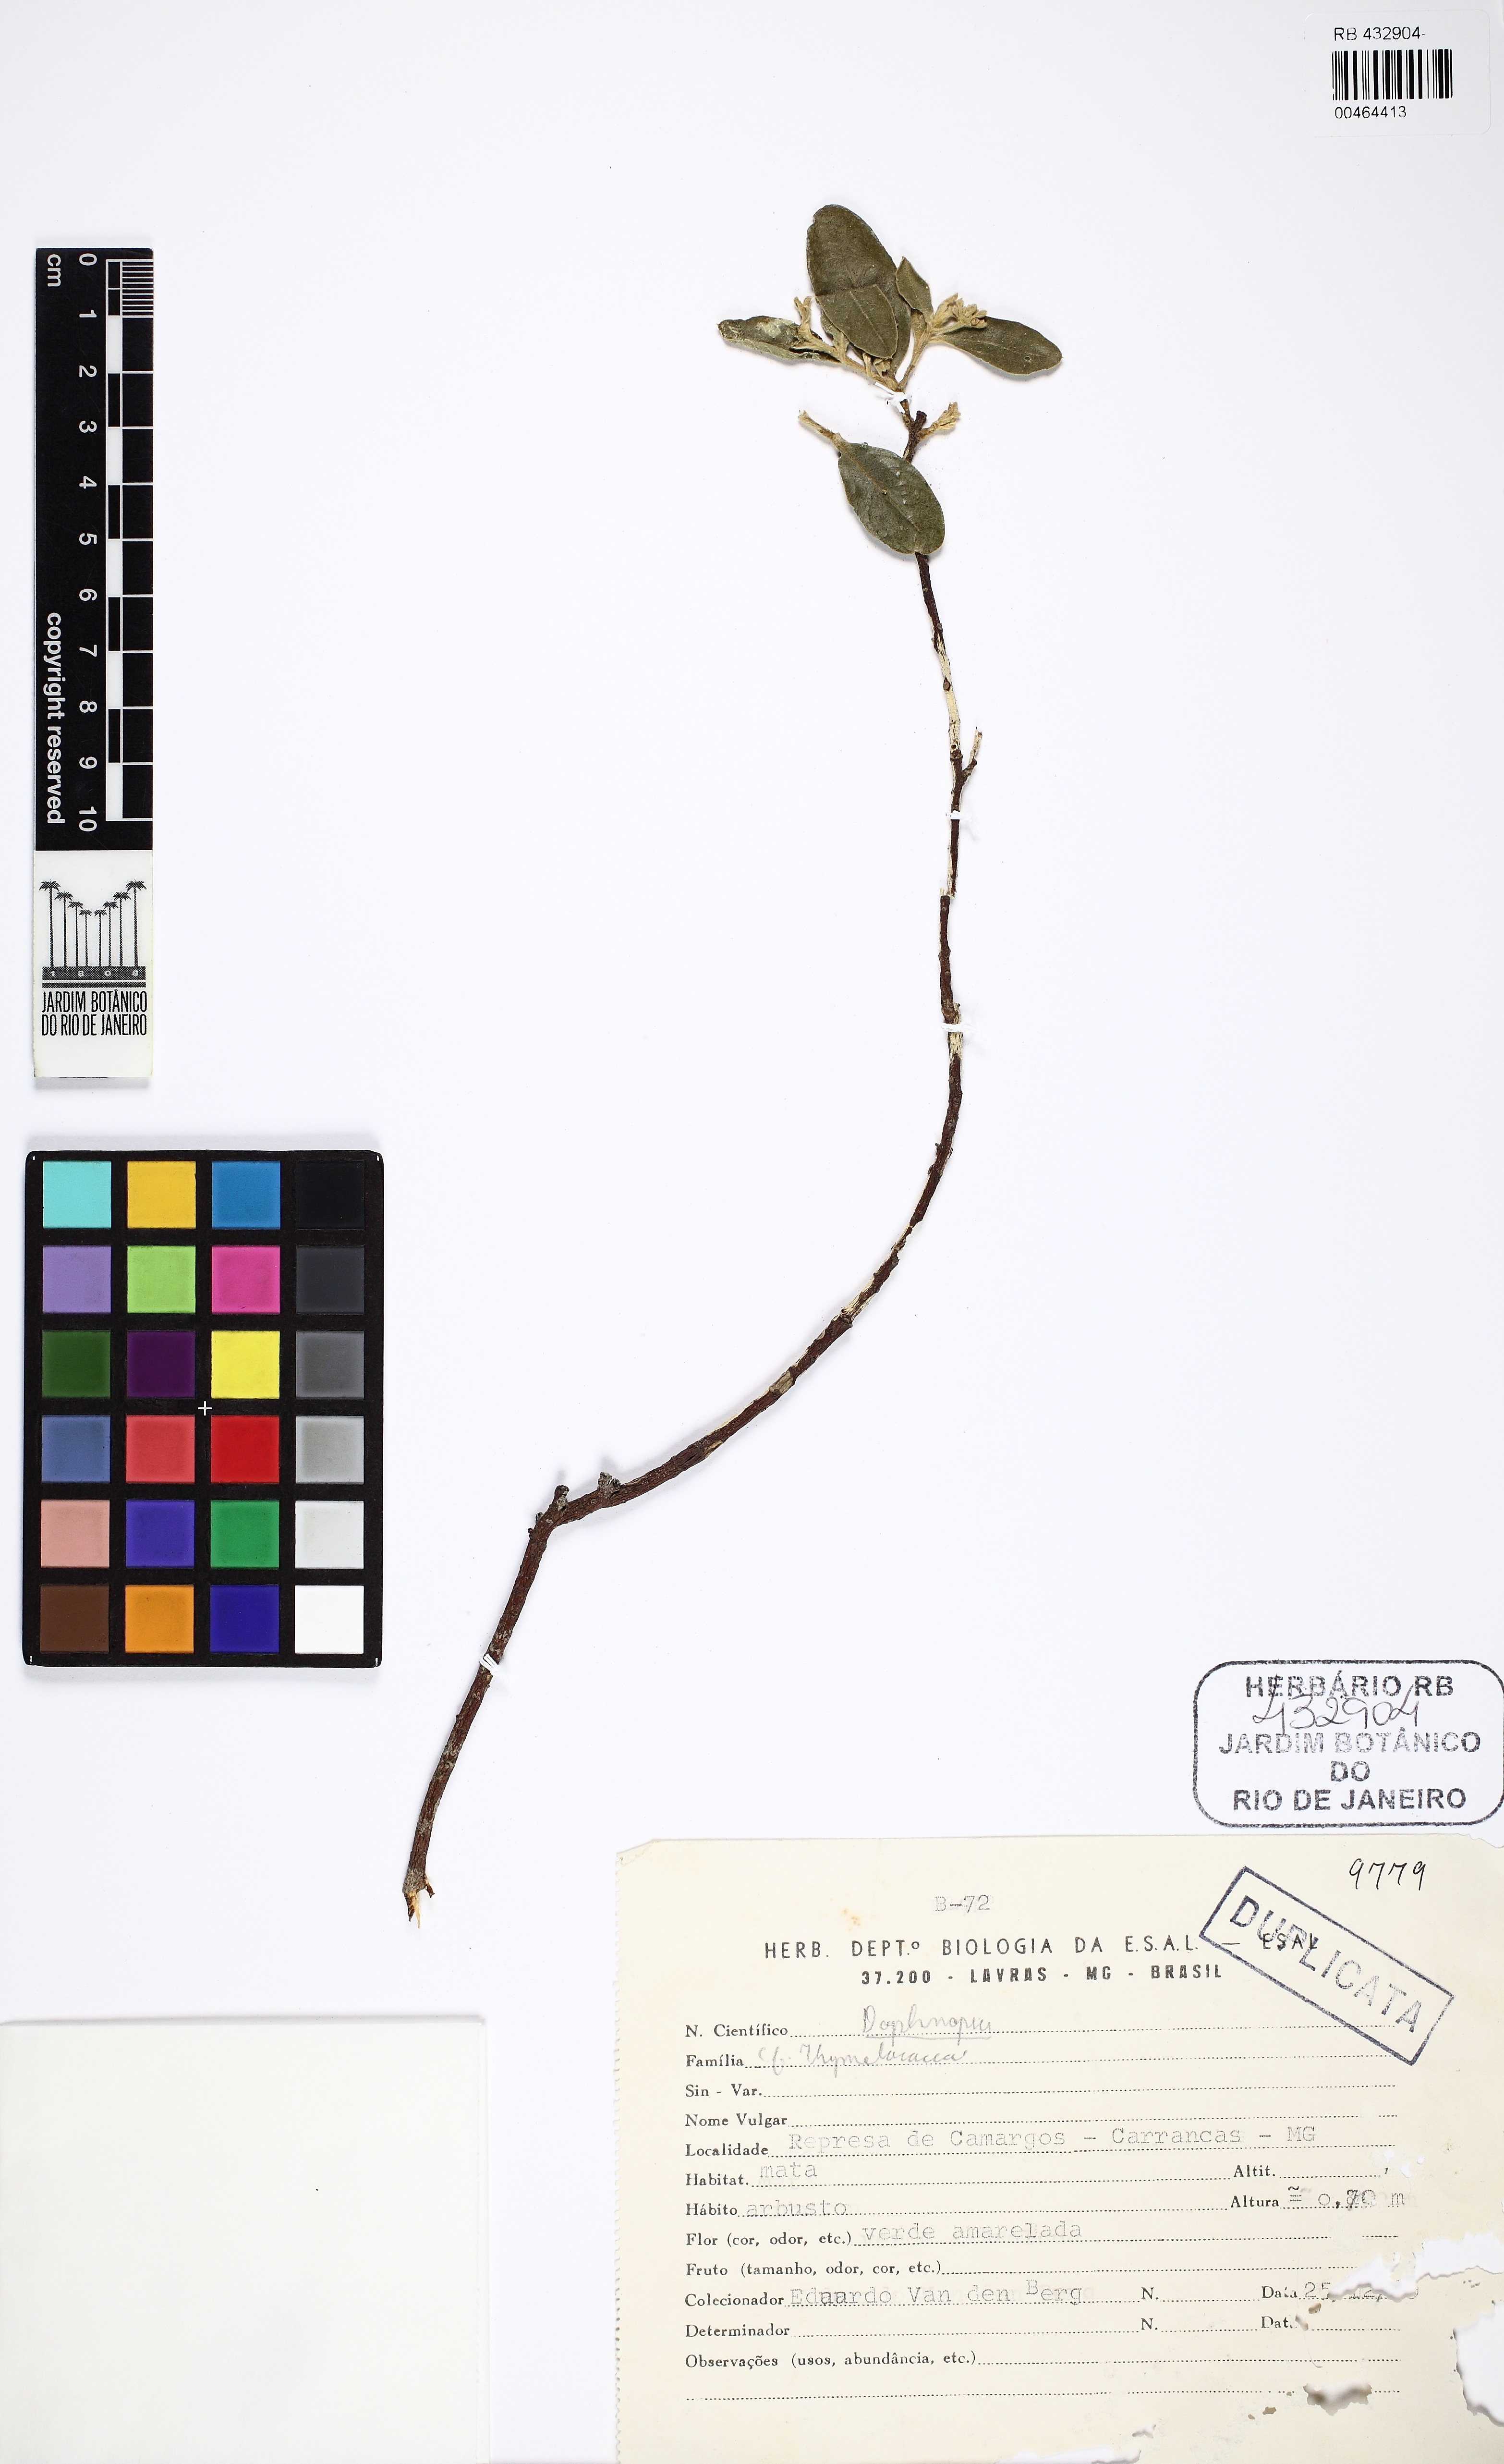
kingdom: Plantae
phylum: Tracheophyta
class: Magnoliopsida
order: Malvales
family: Thymelaeaceae
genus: Daphnopsis
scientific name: Daphnopsis
